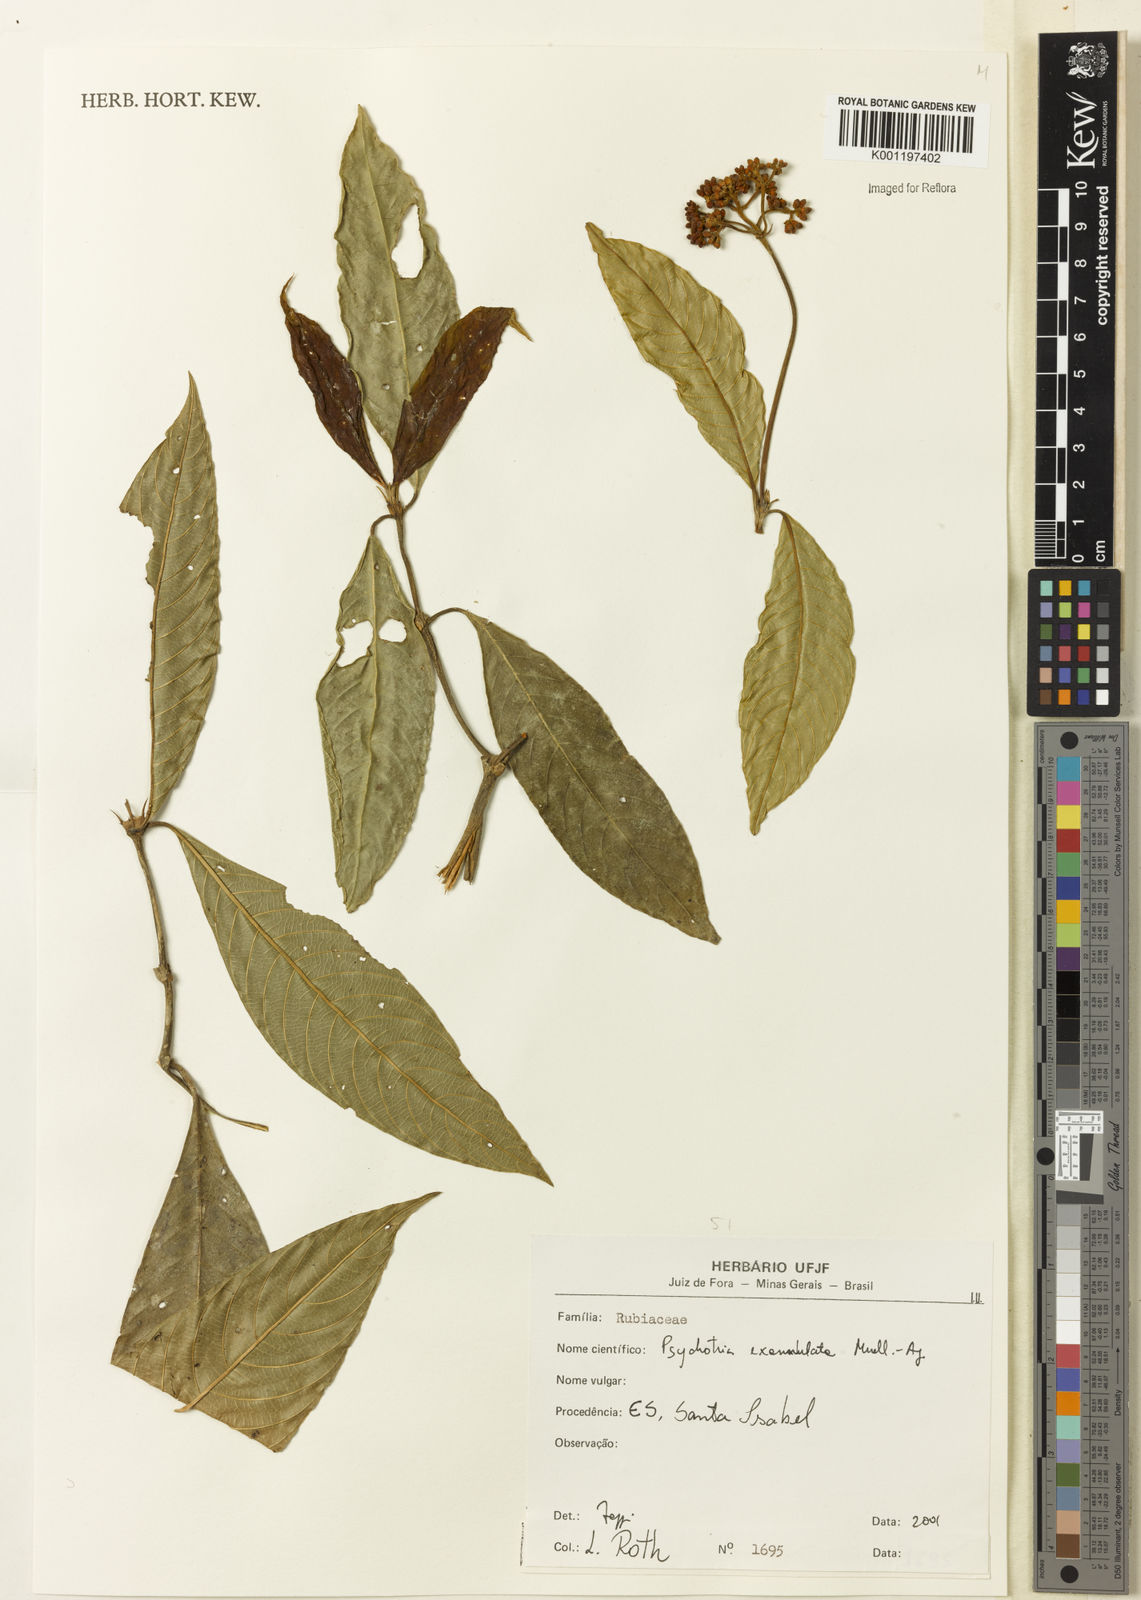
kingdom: Plantae
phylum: Tracheophyta
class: Magnoliopsida
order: Gentianales
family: Rubiaceae
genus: Psychotria
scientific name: Psychotria
